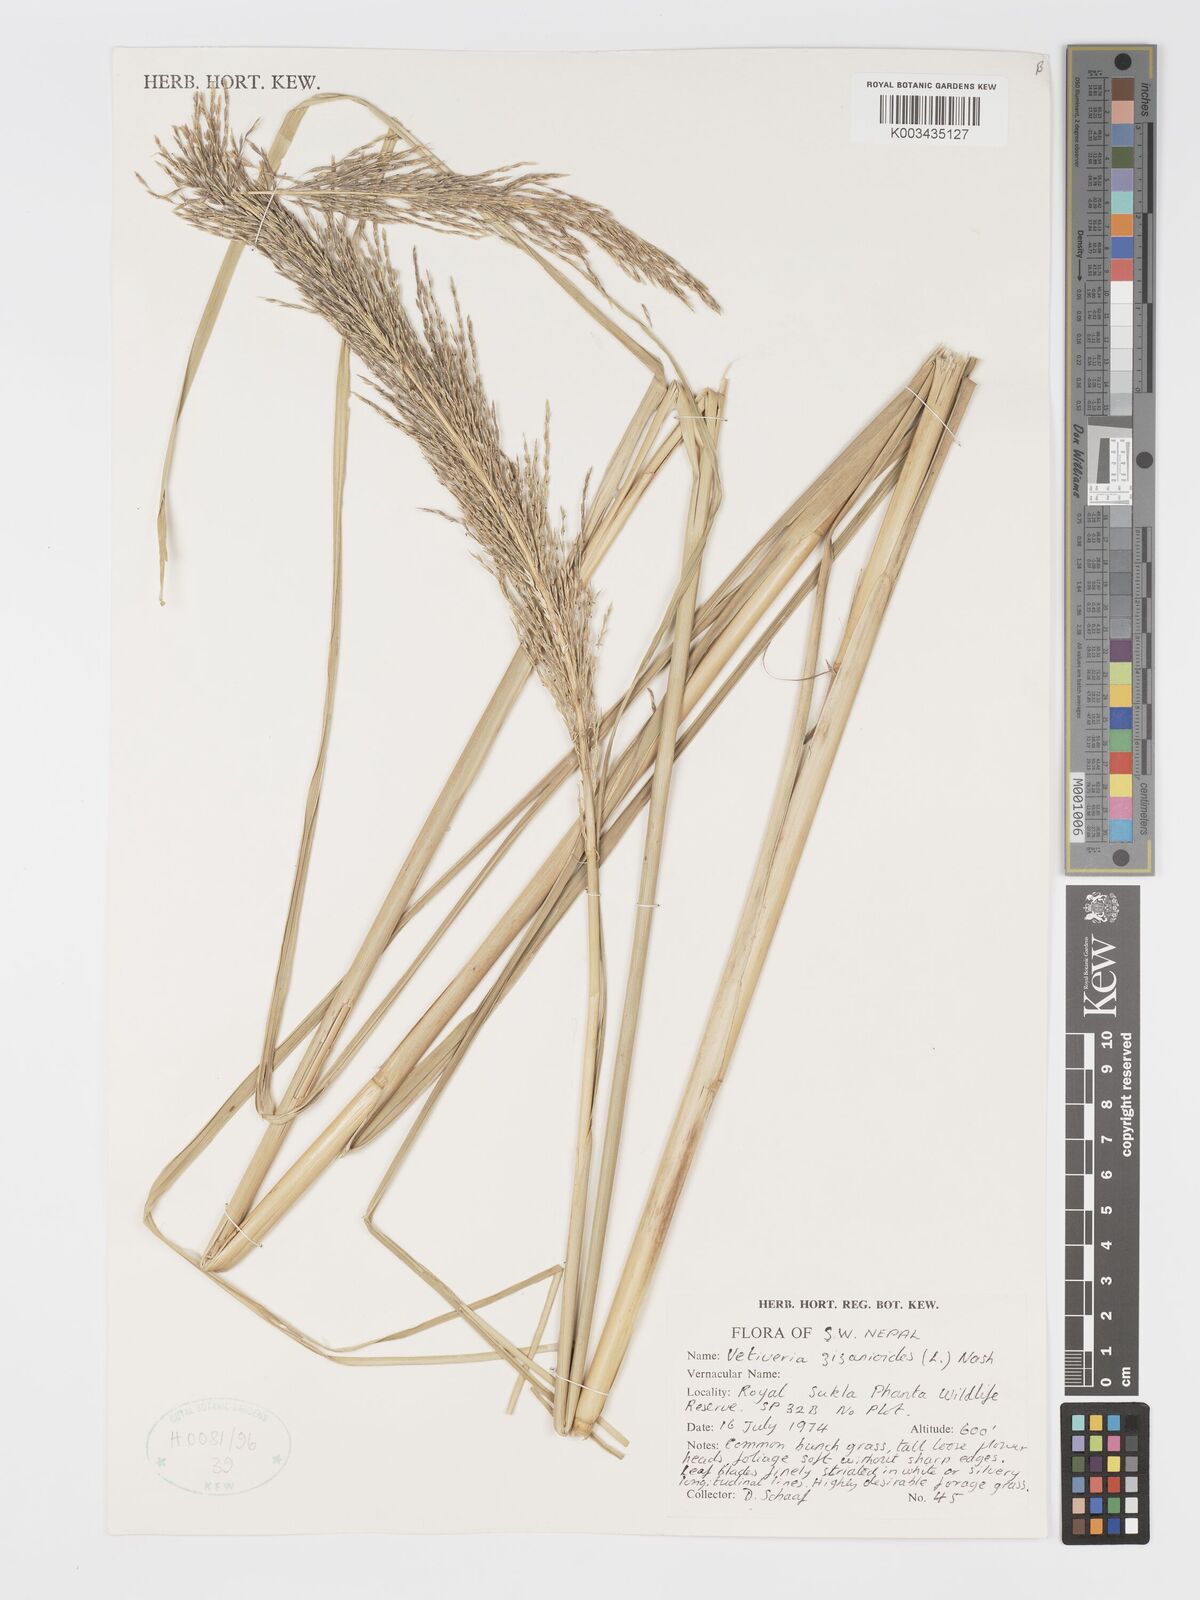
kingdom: Plantae
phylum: Tracheophyta
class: Liliopsida
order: Poales
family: Poaceae
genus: Chrysopogon
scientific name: Chrysopogon zizanioides
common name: False beardgrass
